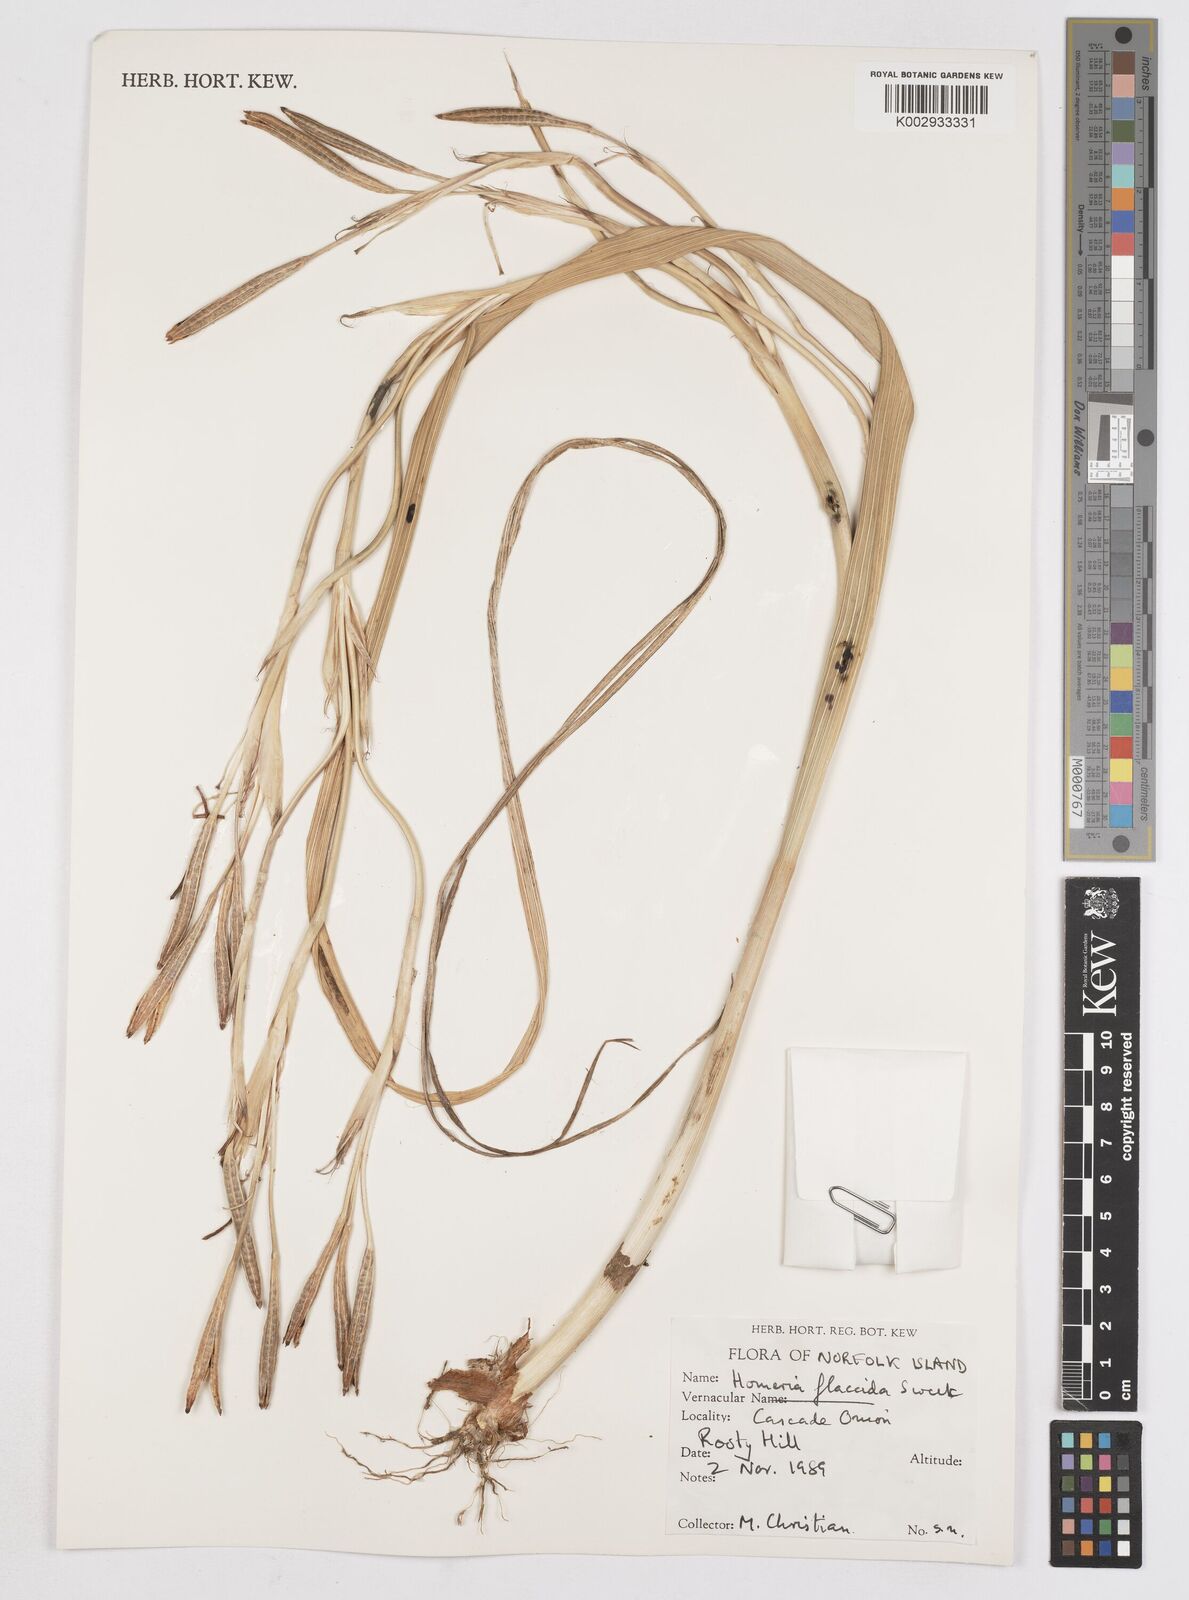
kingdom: Plantae
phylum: Tracheophyta
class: Liliopsida
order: Asparagales
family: Iridaceae
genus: Moraea
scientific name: Moraea flaccida
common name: One-leaf cape-tulip
